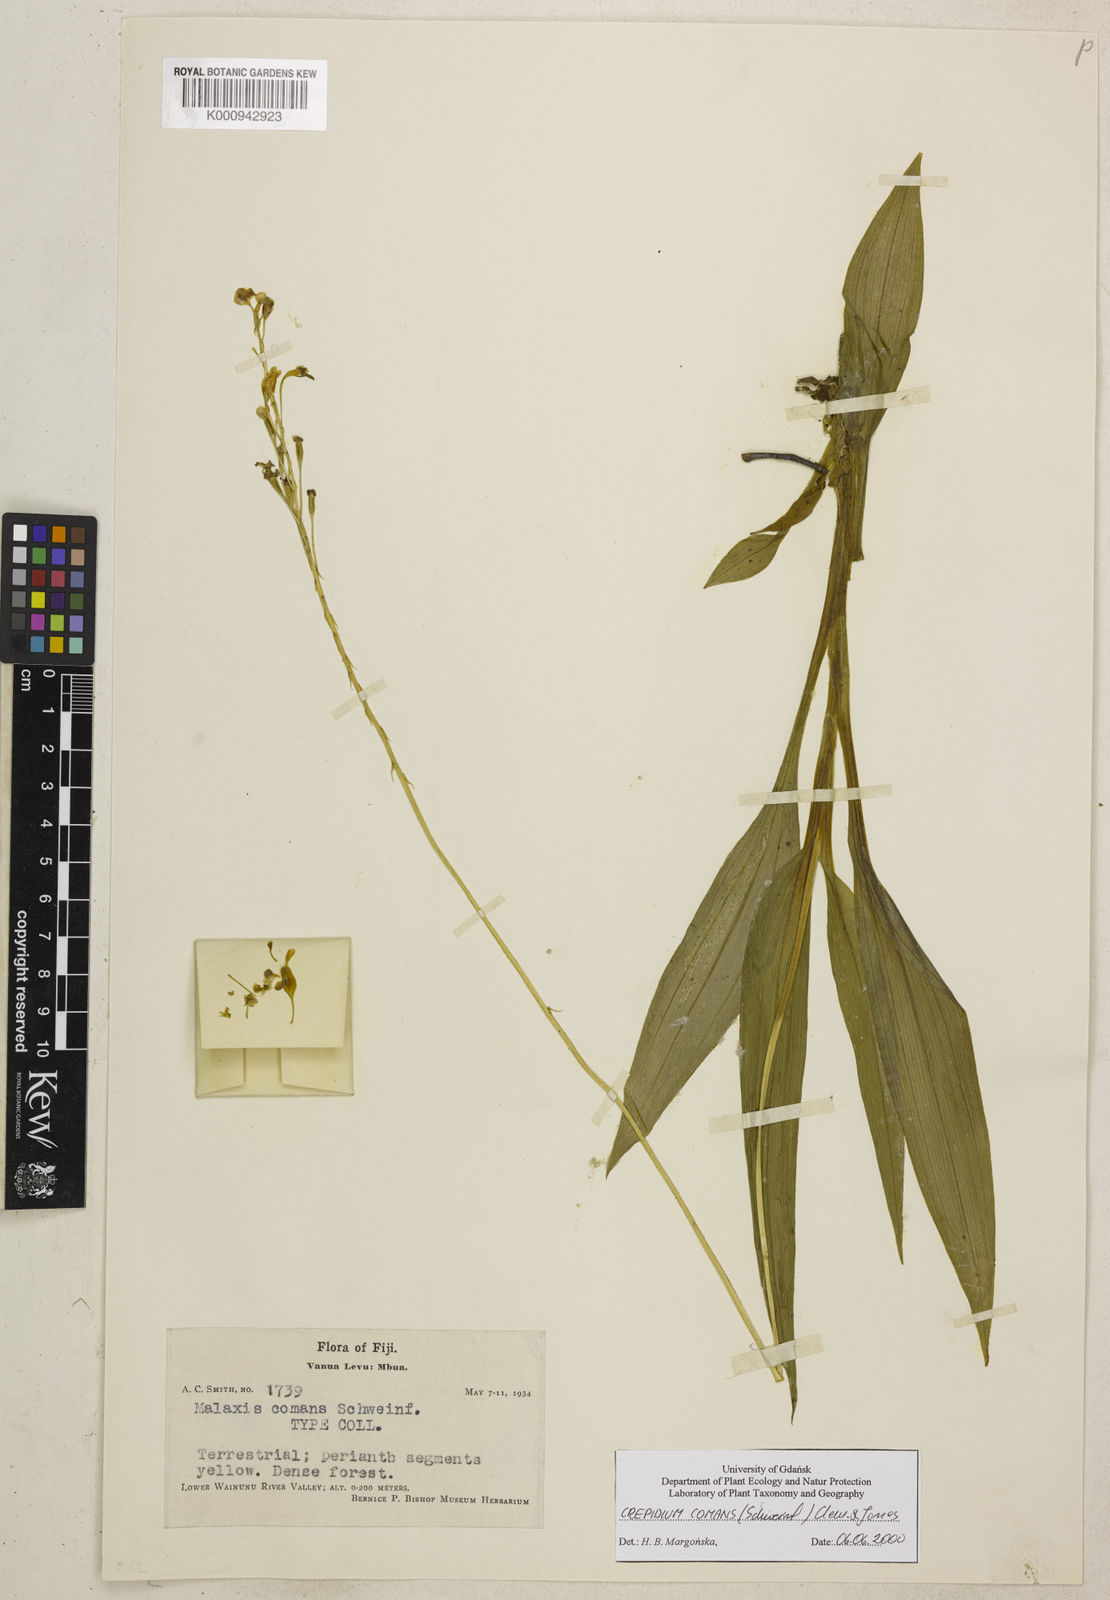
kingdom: Plantae
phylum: Tracheophyta
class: Liliopsida
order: Asparagales
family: Orchidaceae
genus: Crepidium
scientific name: Crepidium comans
